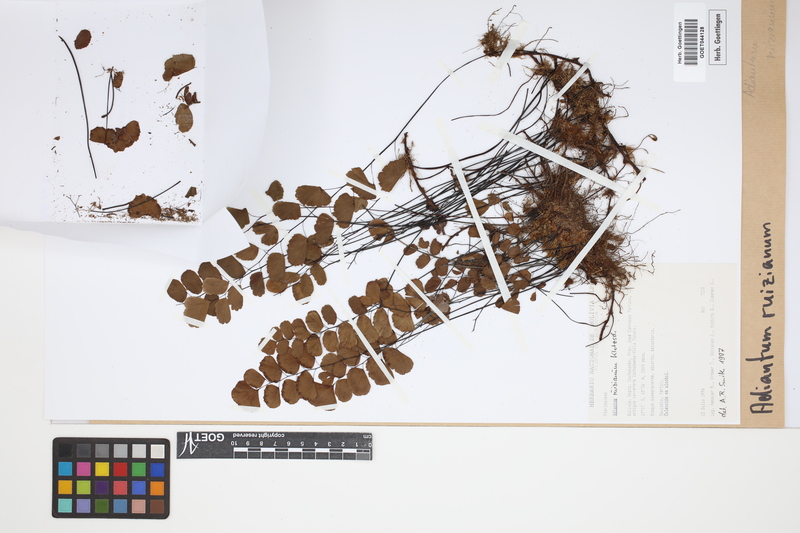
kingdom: Plantae
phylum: Tracheophyta
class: Polypodiopsida
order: Polypodiales
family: Pteridaceae
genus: Adiantum
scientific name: Adiantum ruizianum
